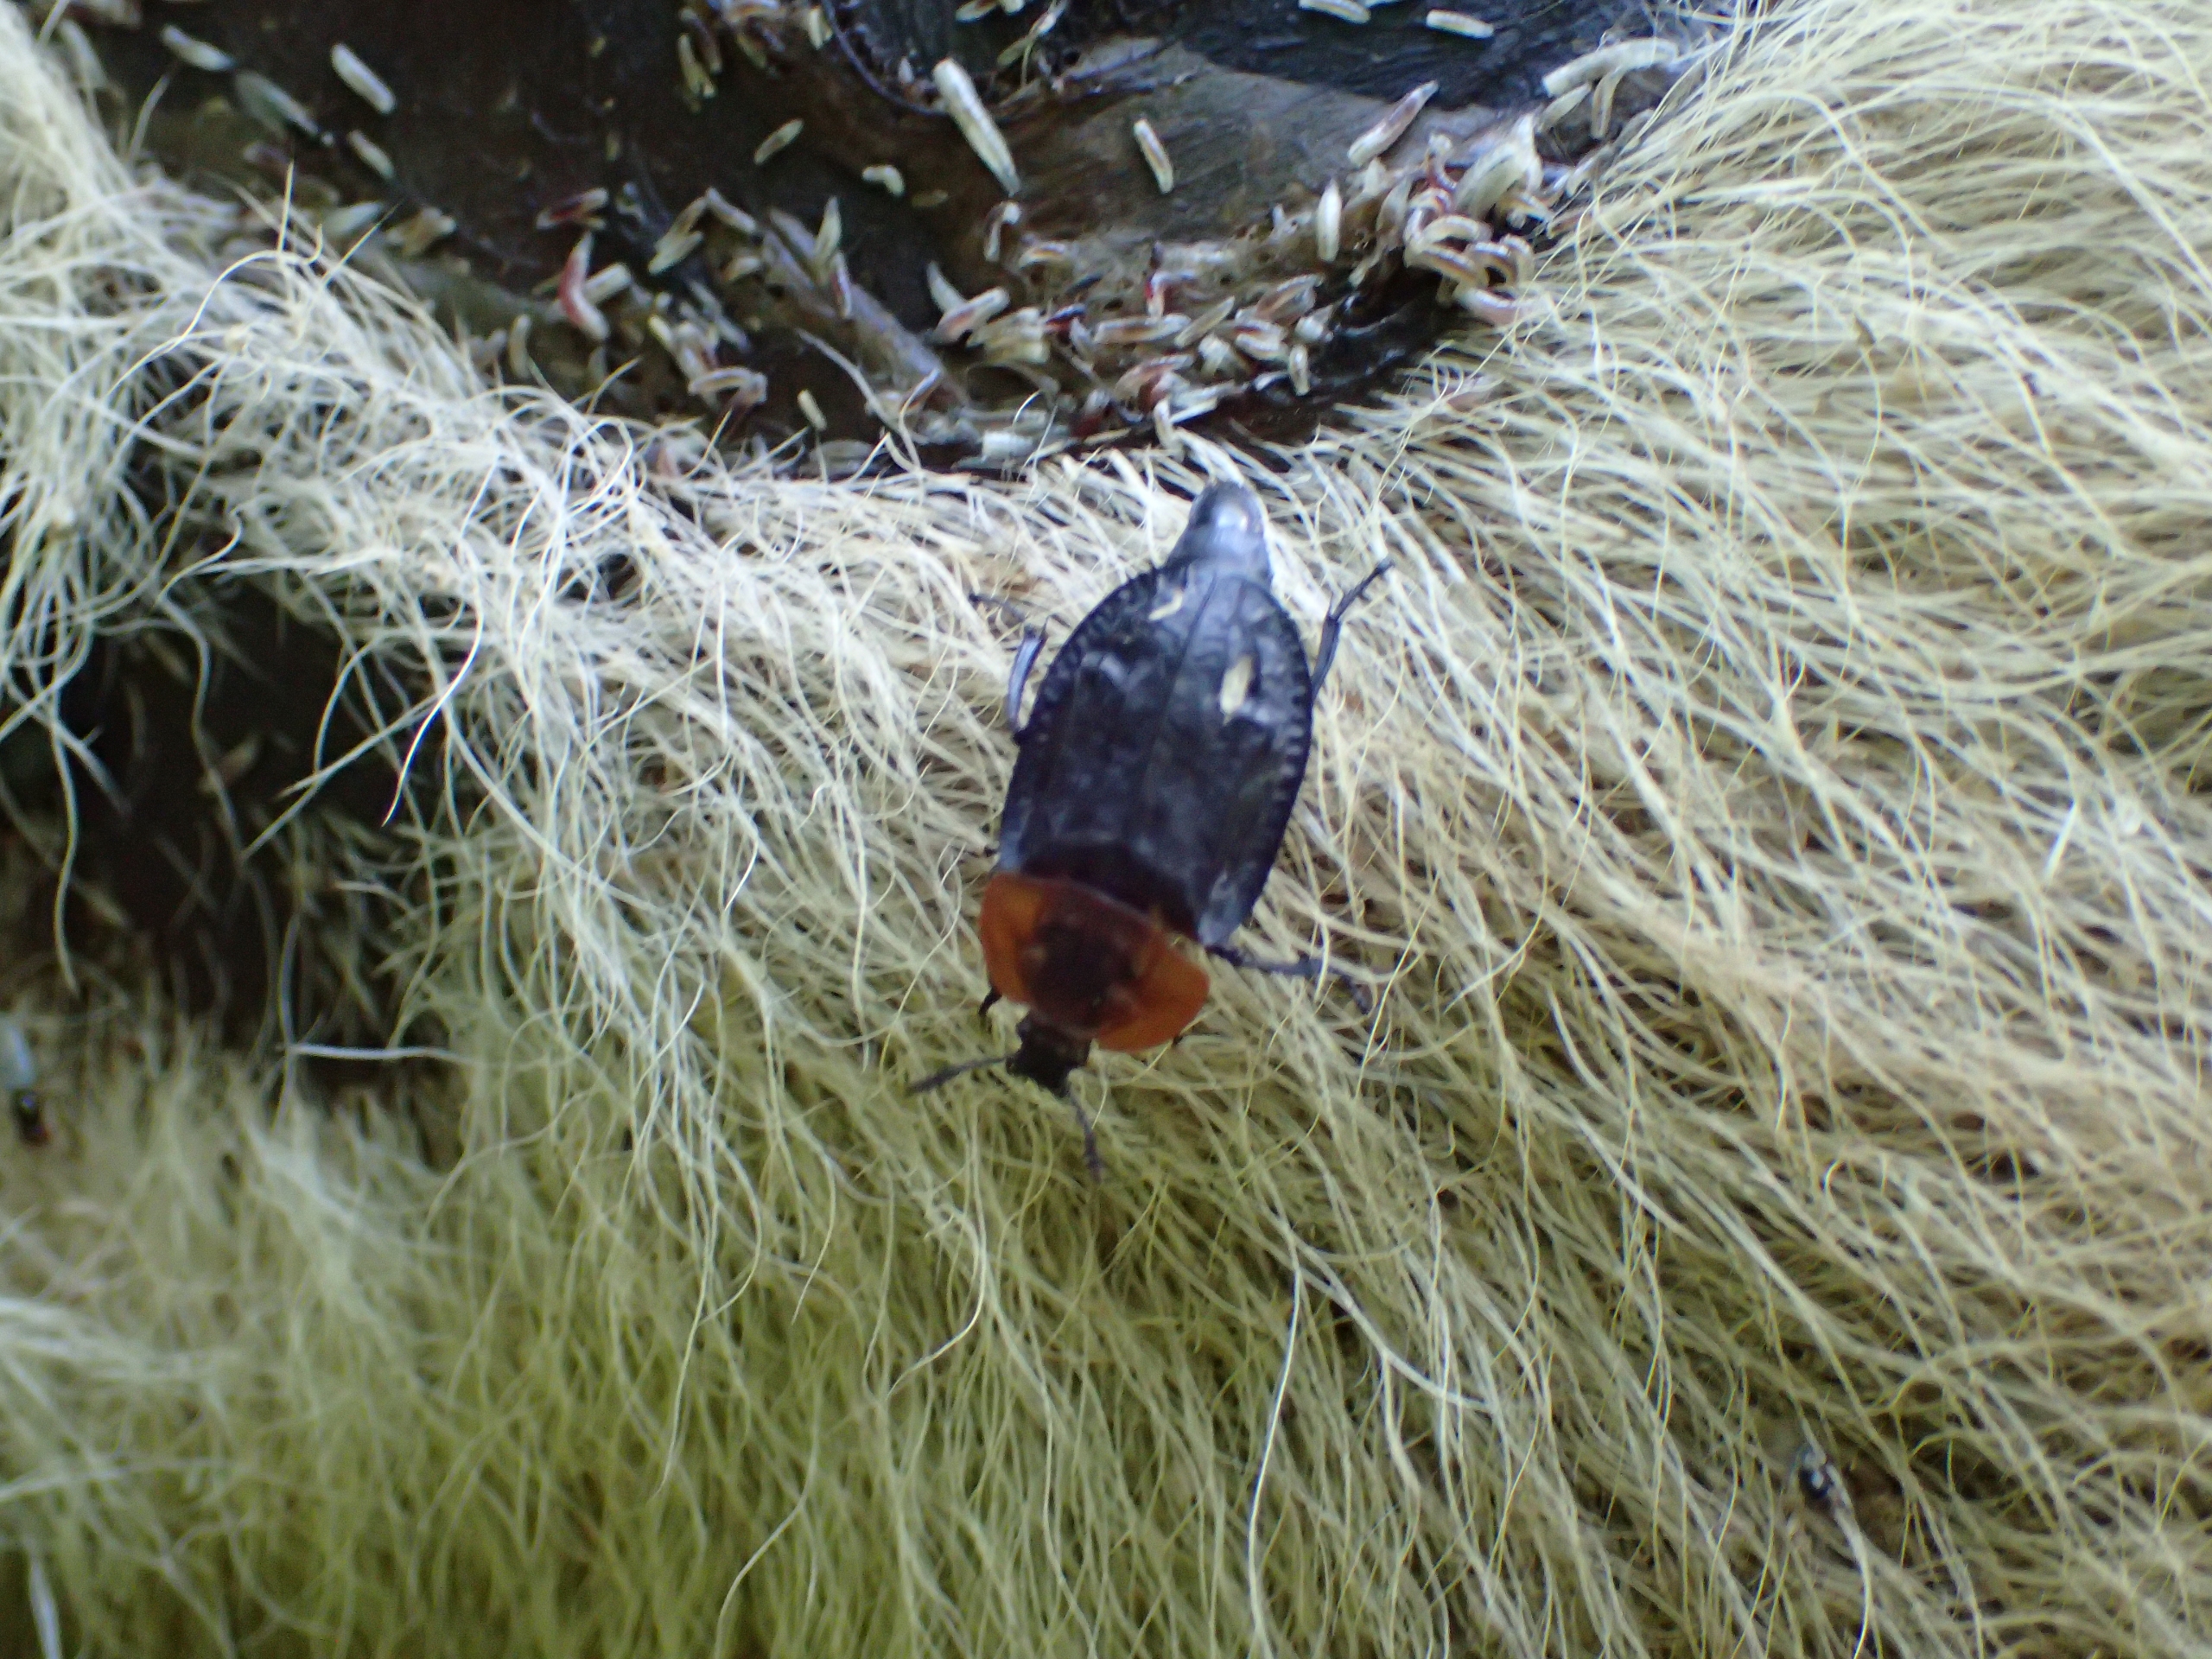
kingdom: Animalia
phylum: Arthropoda
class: Insecta
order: Coleoptera
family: Staphylinidae
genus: Oiceoptoma
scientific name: Oiceoptoma thoracicum
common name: Rødbrystet ådselbille
